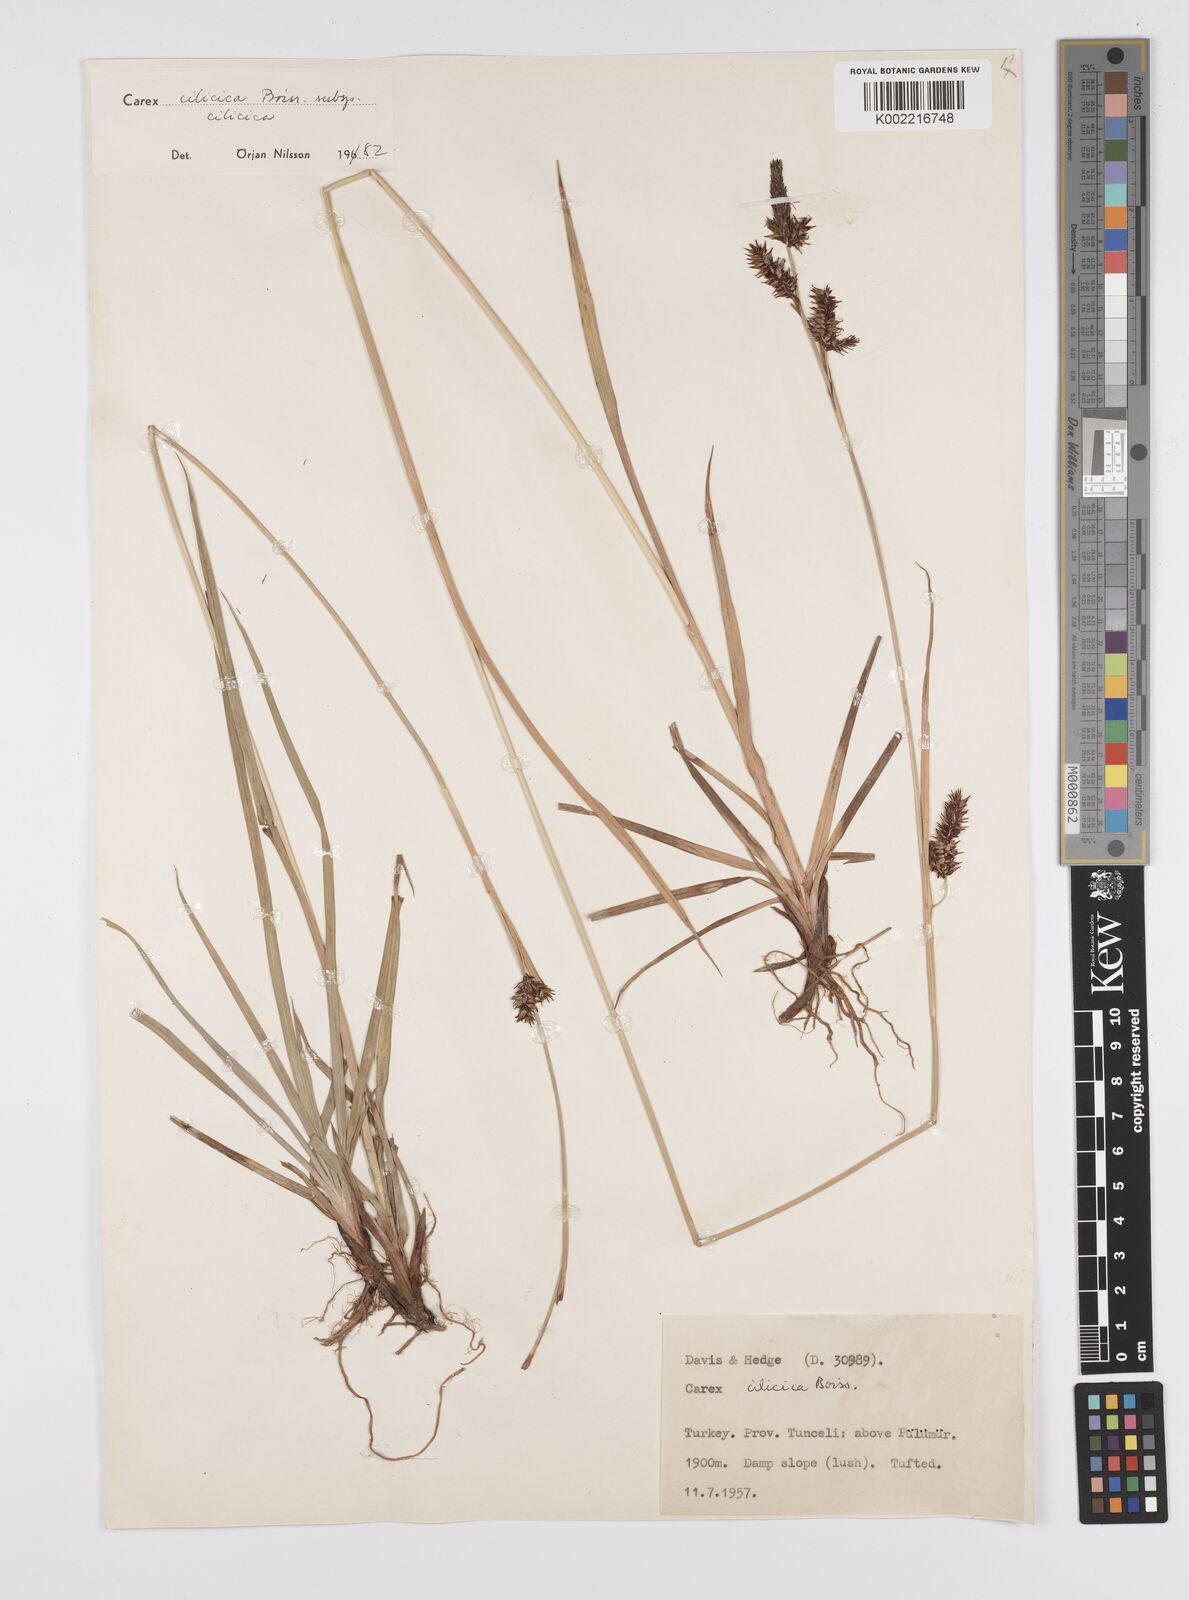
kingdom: Plantae
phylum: Tracheophyta
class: Liliopsida
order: Poales
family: Cyperaceae
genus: Carex
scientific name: Carex cilicica
